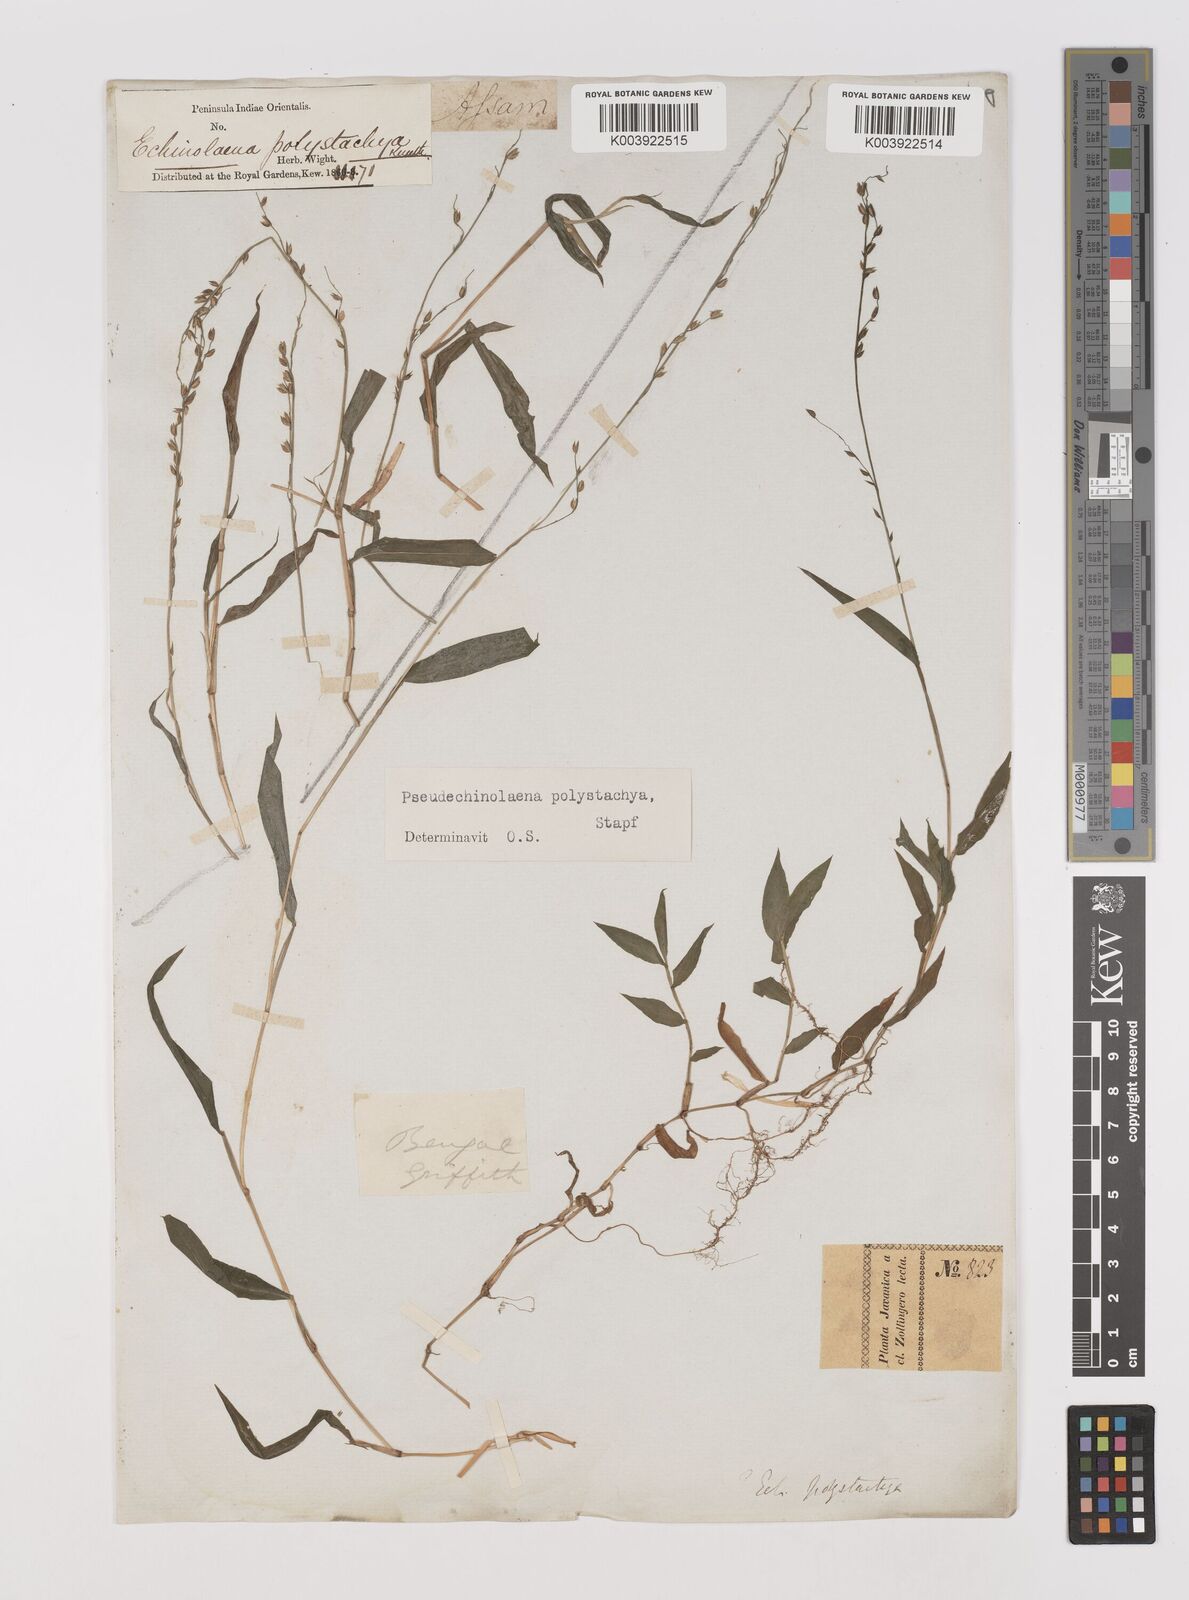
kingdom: Plantae
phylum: Tracheophyta
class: Liliopsida
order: Poales
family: Poaceae
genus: Pseudechinolaena
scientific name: Pseudechinolaena polystachya
